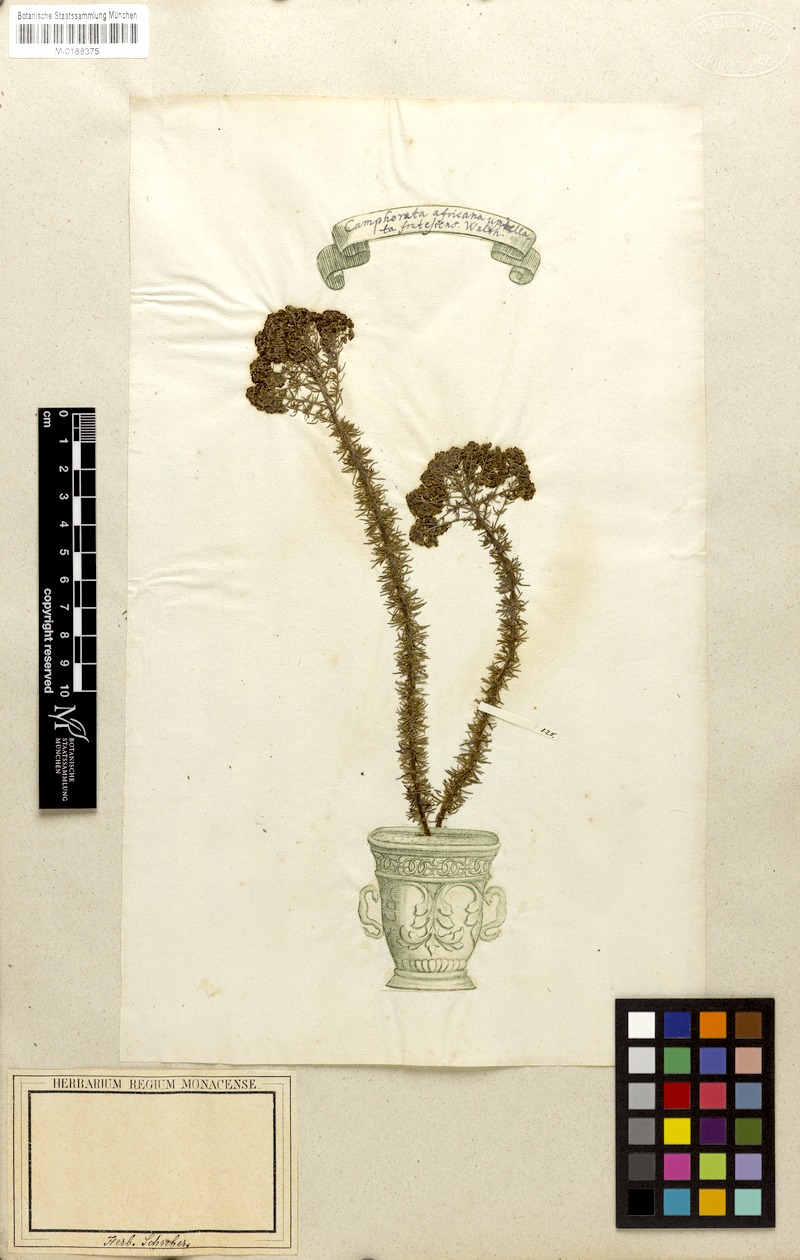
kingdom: Plantae
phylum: Tracheophyta
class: Magnoliopsida
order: Lamiales
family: Scrophulariaceae
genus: Selago
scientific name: Selago corymbosa
